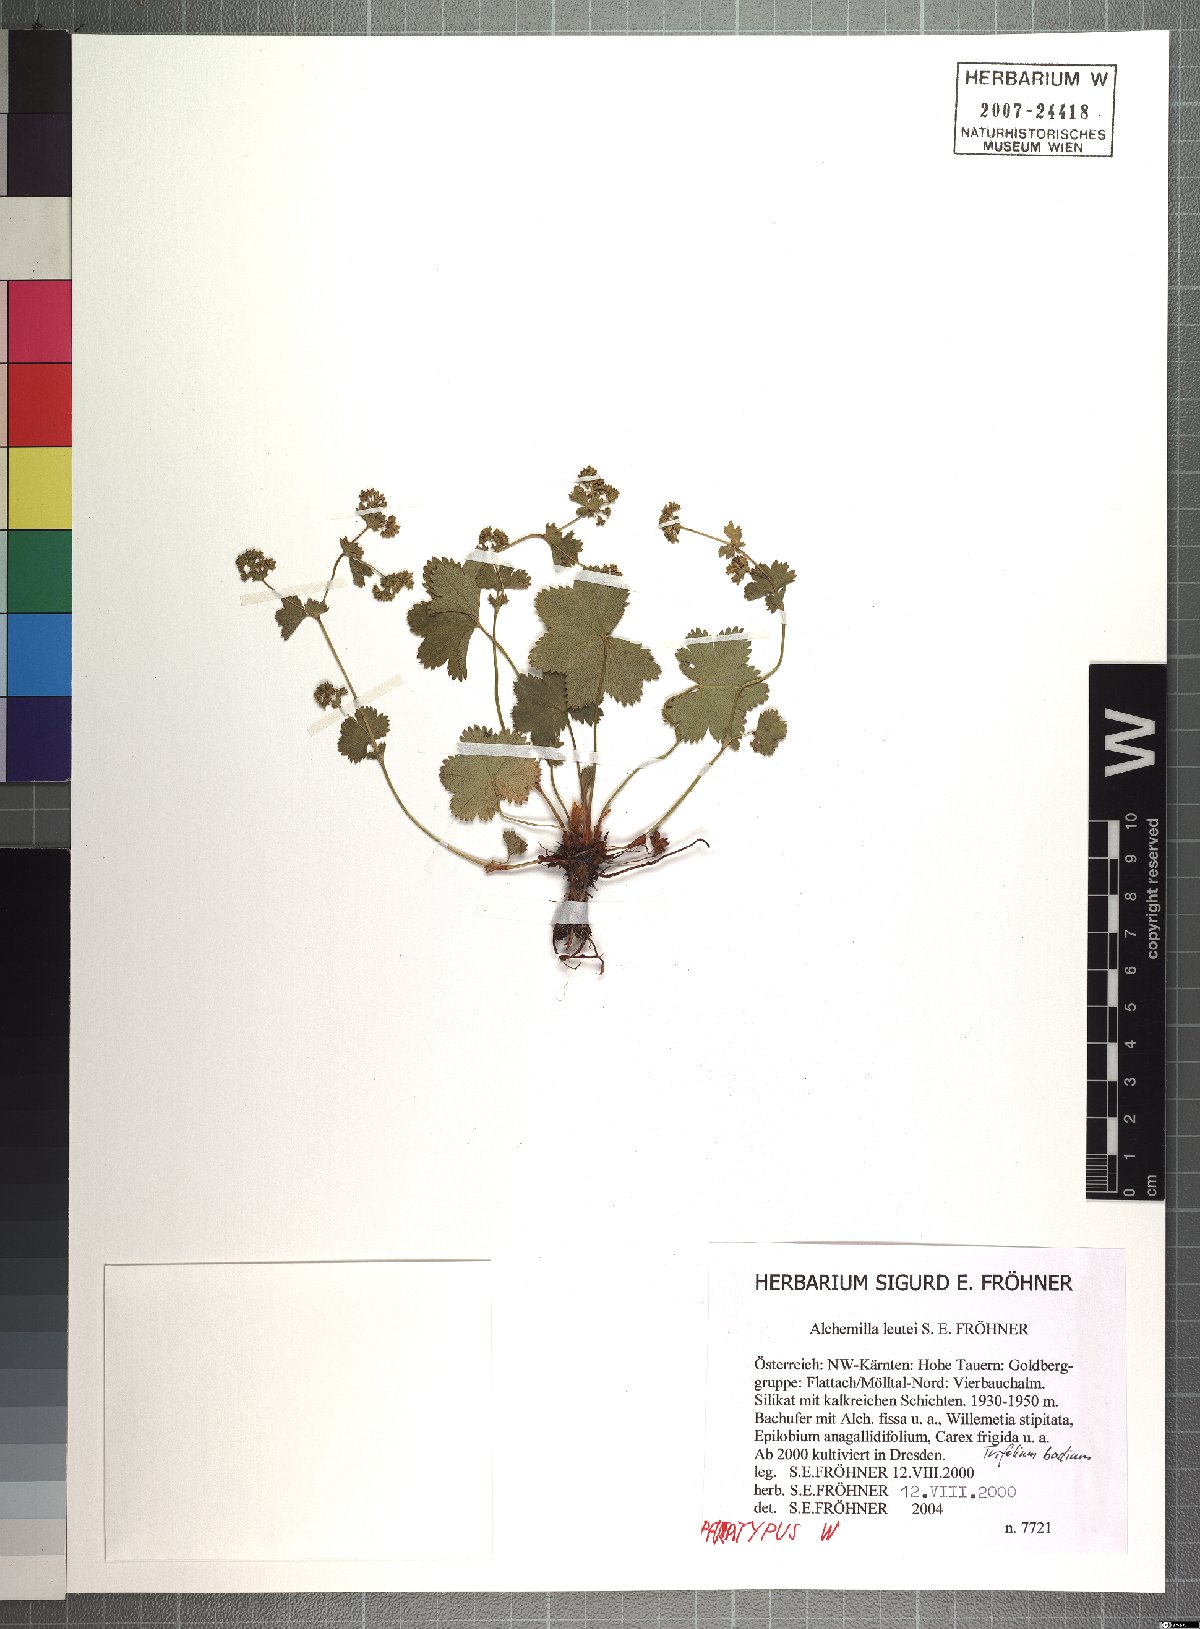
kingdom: Plantae
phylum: Tracheophyta
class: Magnoliopsida
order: Rosales
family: Rosaceae
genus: Alchemilla
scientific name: Alchemilla leutei
